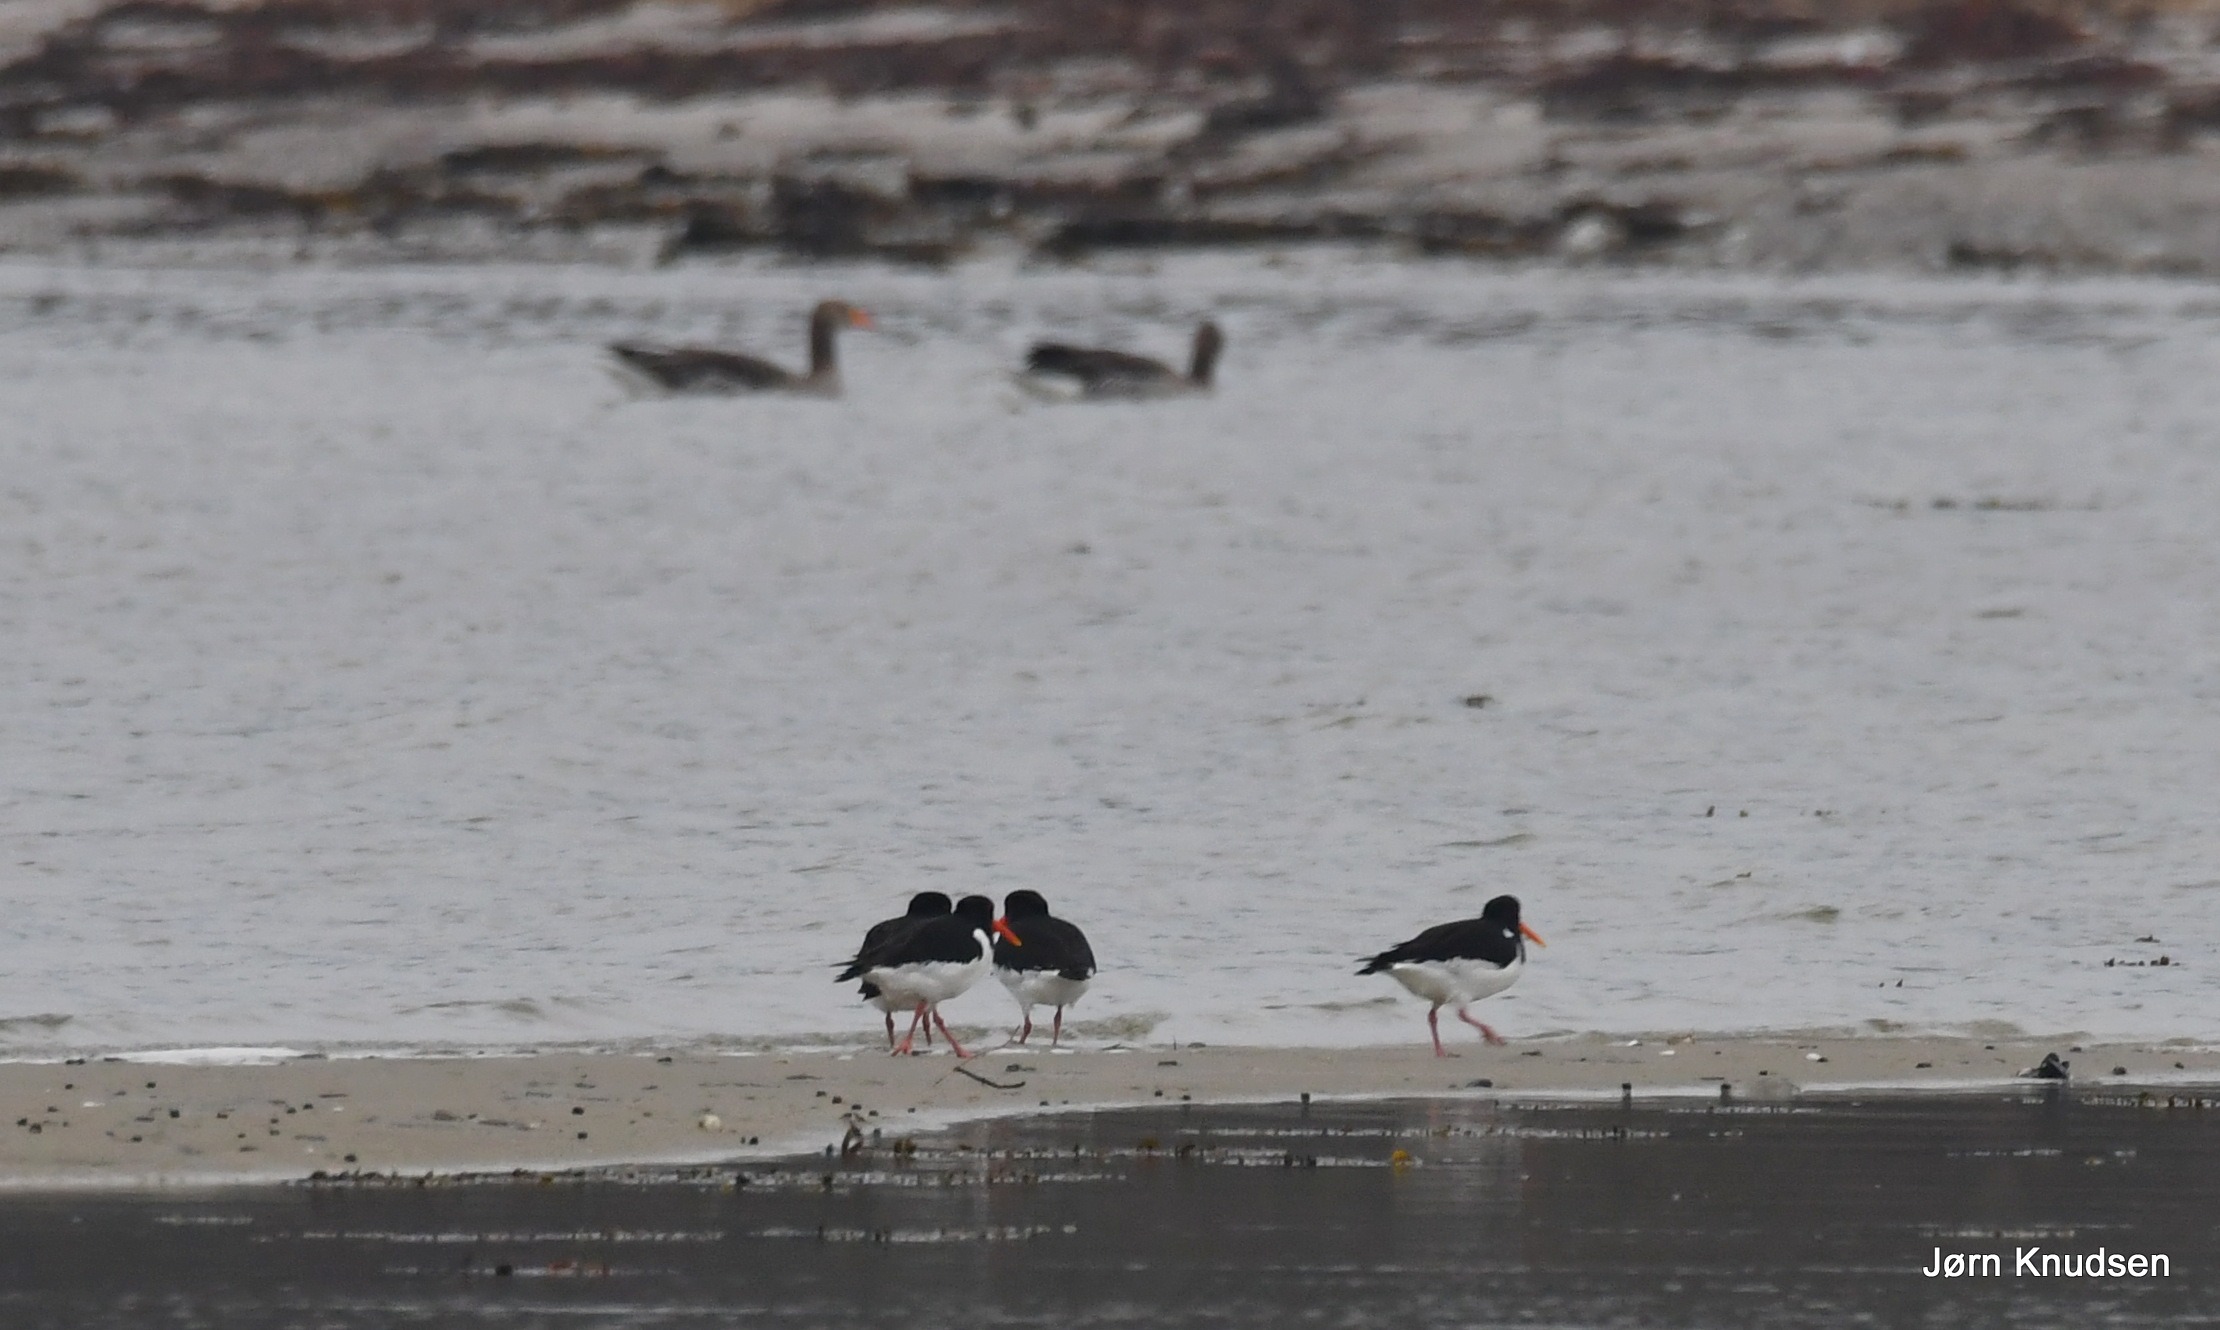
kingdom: Animalia
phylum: Chordata
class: Aves
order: Anseriformes
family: Anatidae
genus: Anser
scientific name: Anser anser
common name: Grågås
